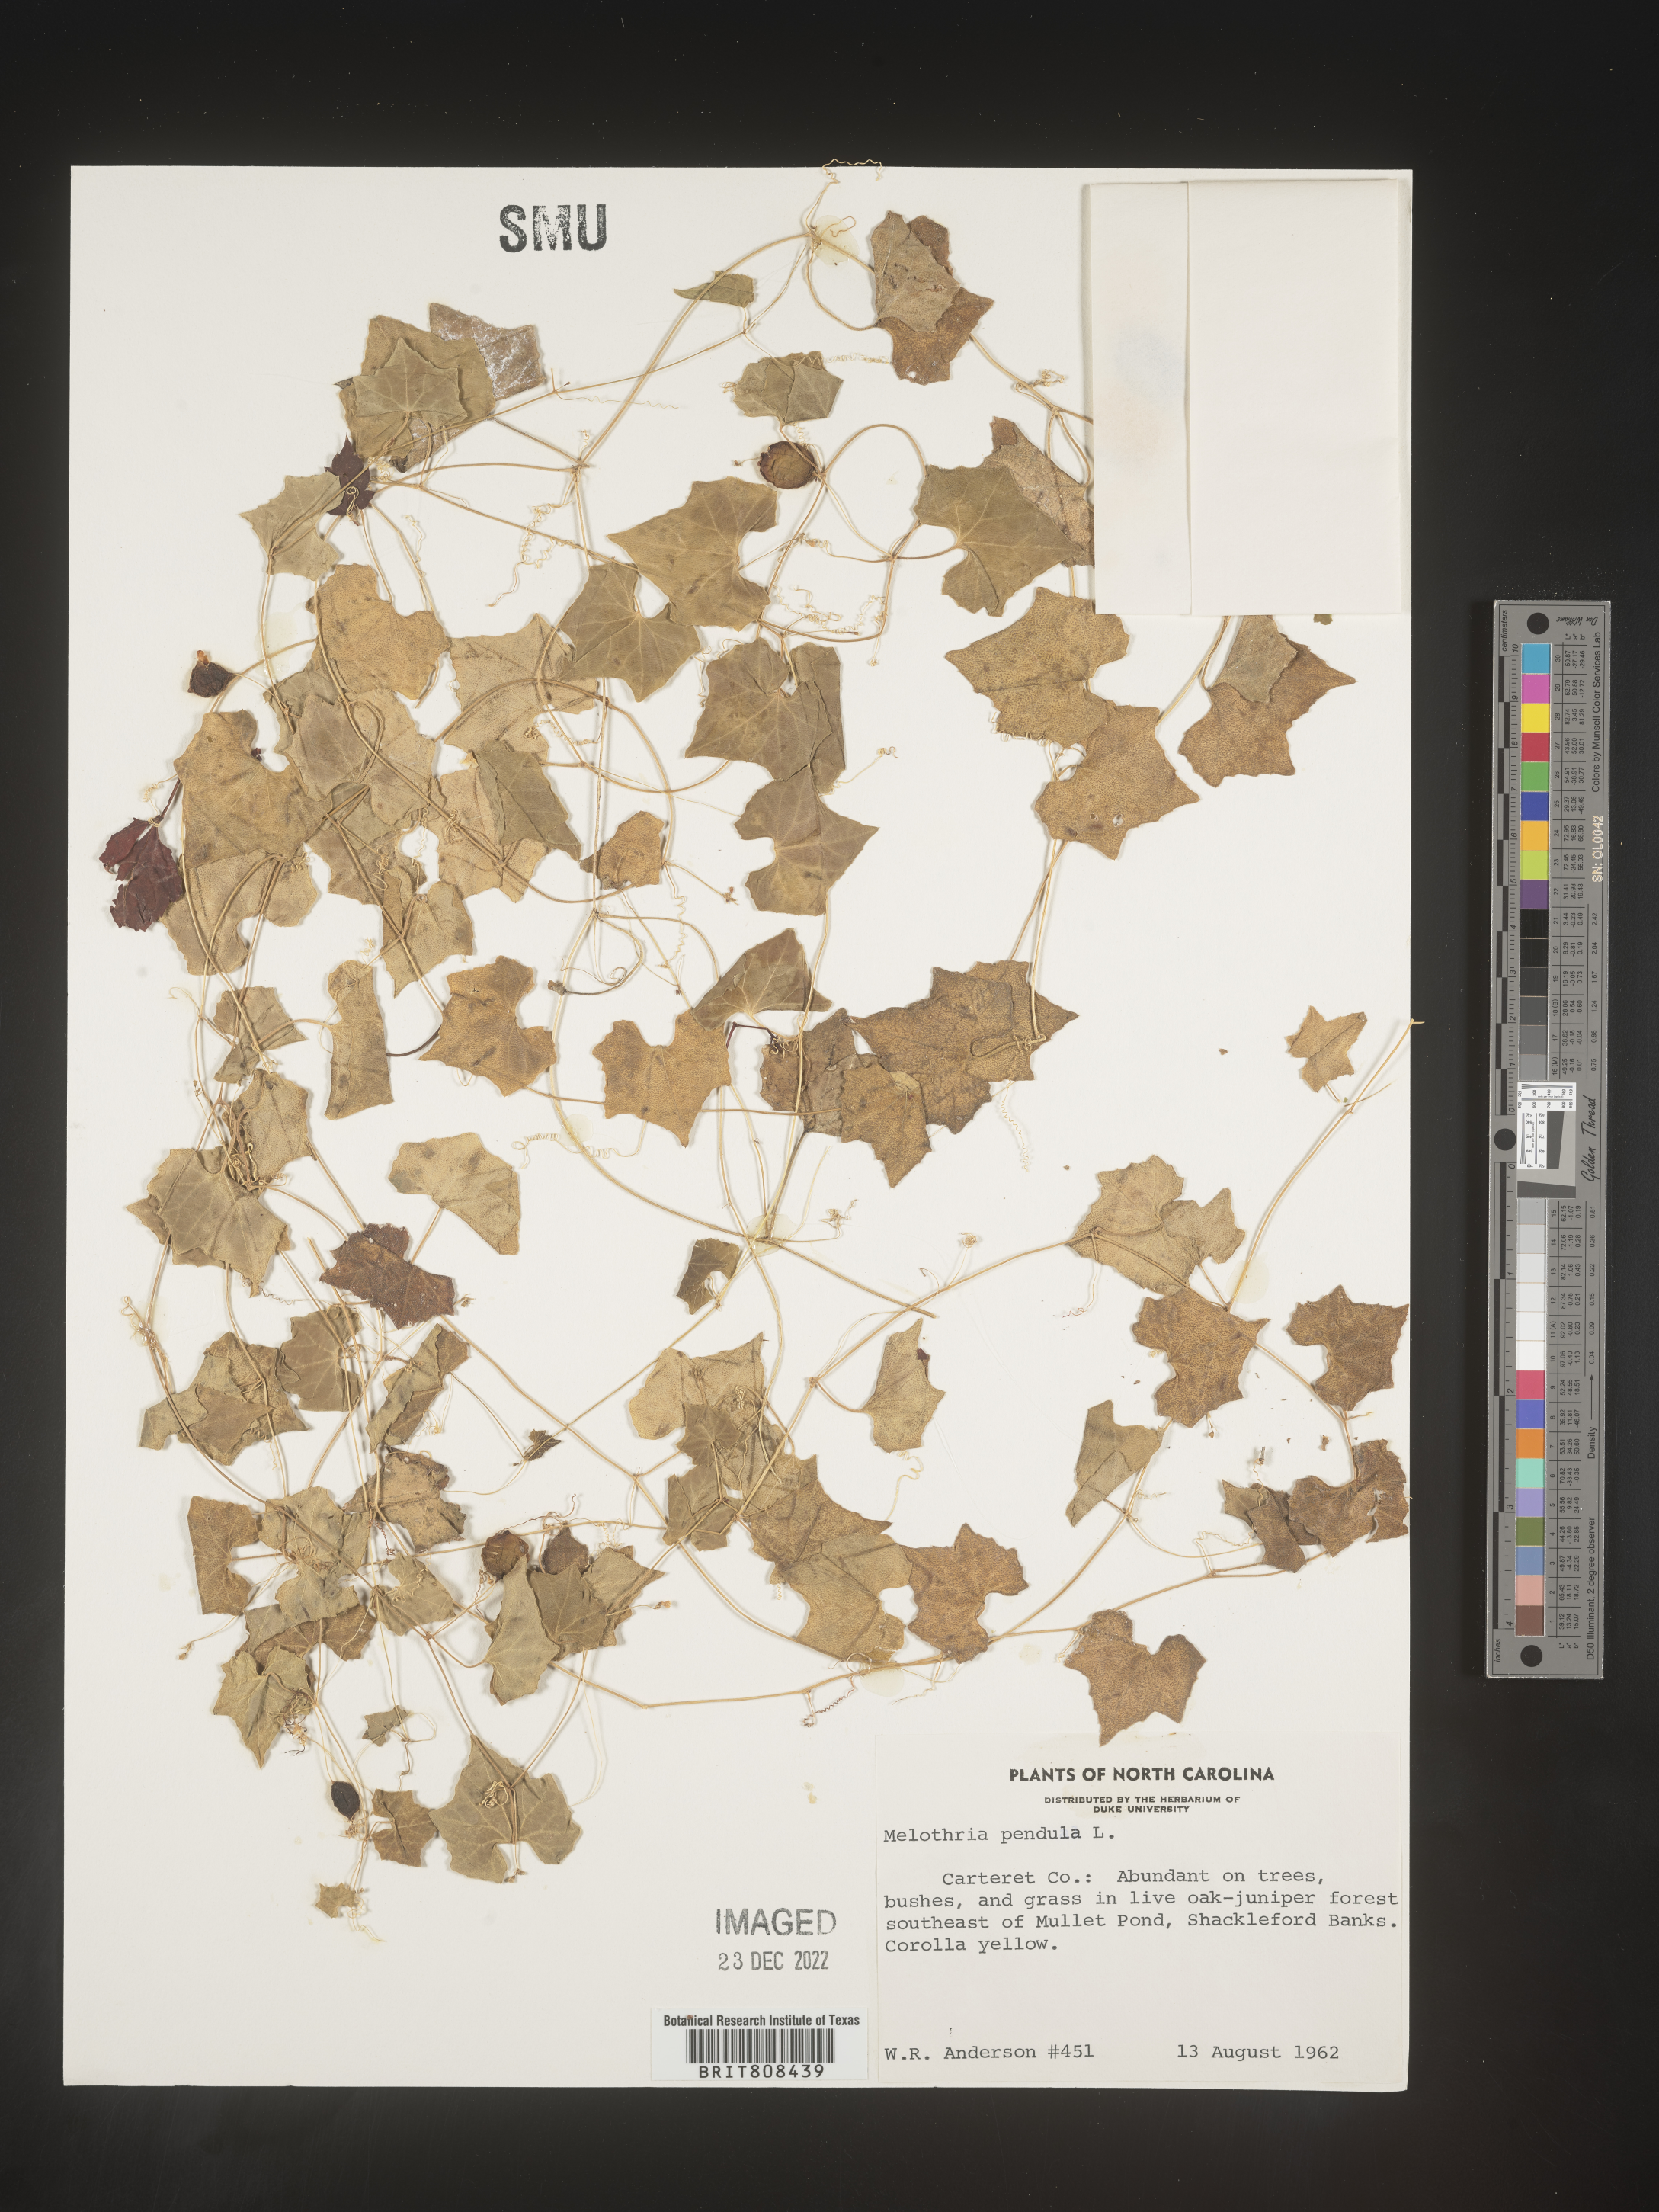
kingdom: Plantae
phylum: Tracheophyta
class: Magnoliopsida
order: Cucurbitales
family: Cucurbitaceae
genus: Melothria
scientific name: Melothria pendula
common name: Creeping-cucumber
